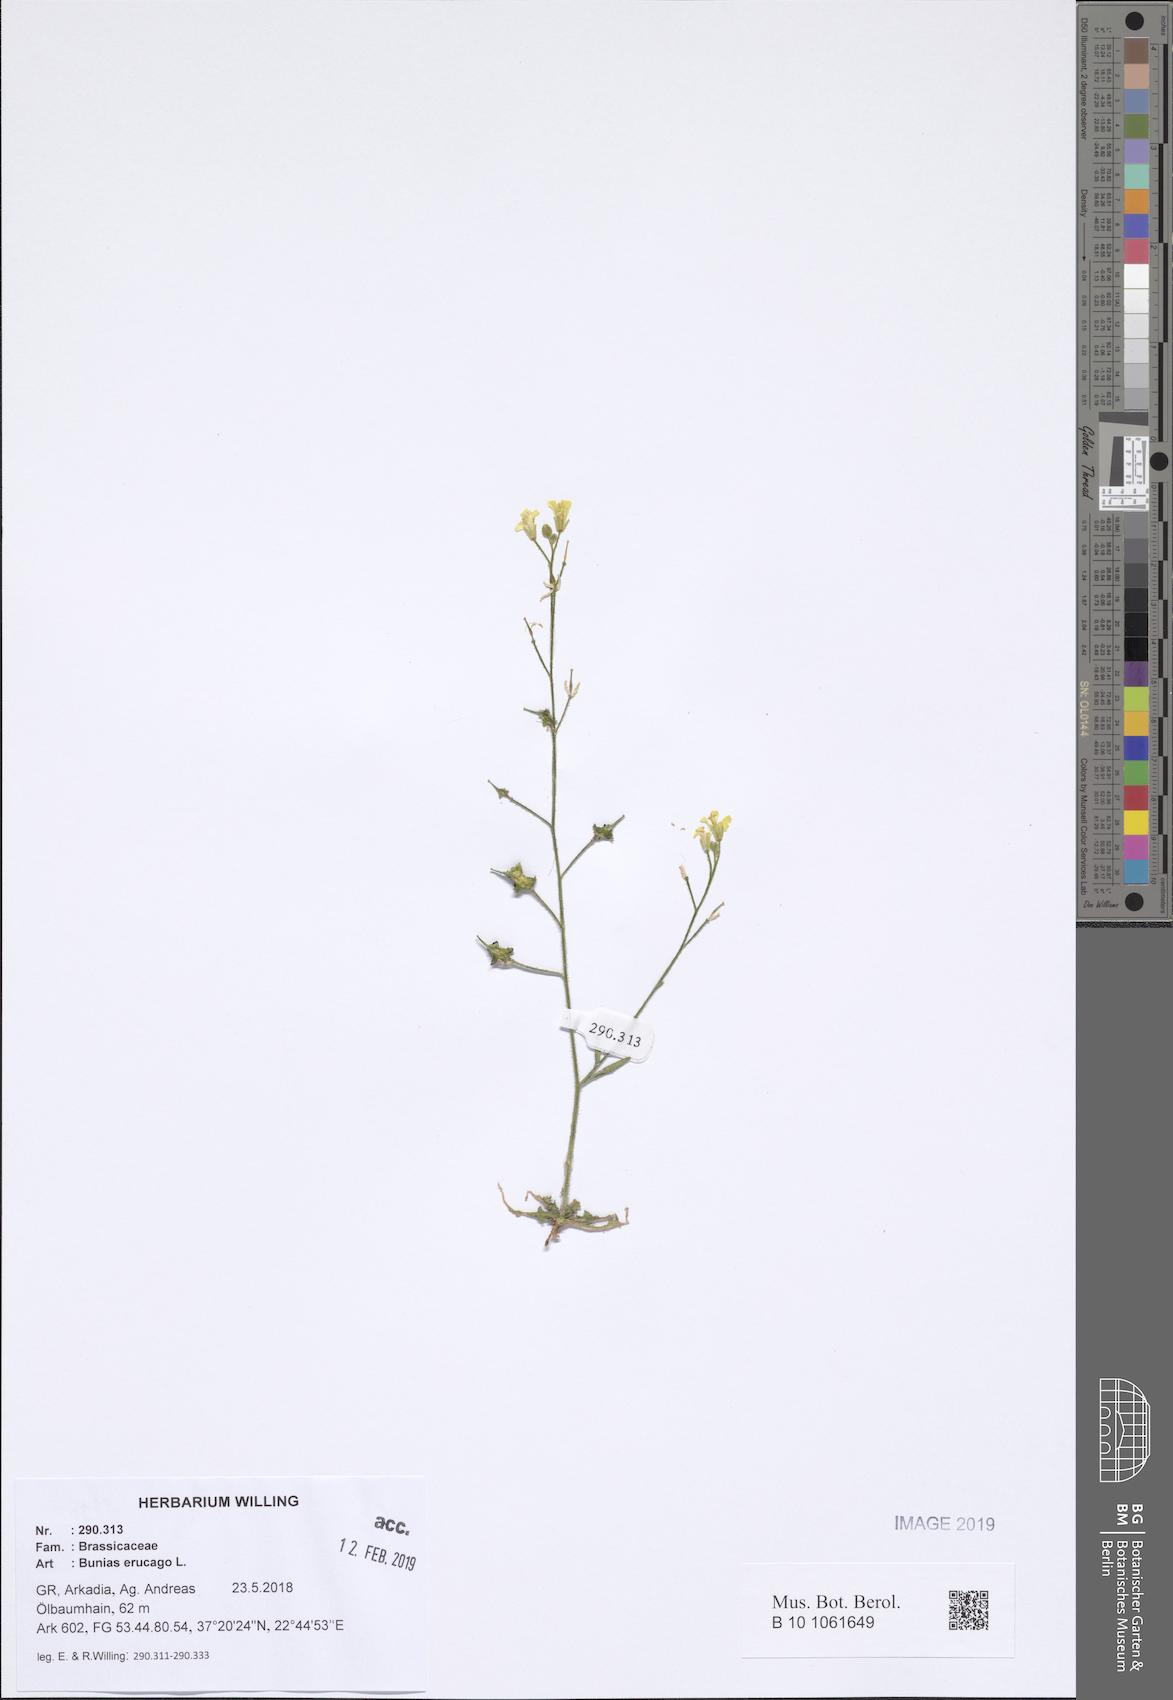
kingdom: Plantae
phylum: Tracheophyta
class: Magnoliopsida
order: Brassicales
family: Brassicaceae
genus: Bunias
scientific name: Bunias erucago
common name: Southern warty-cabbage
